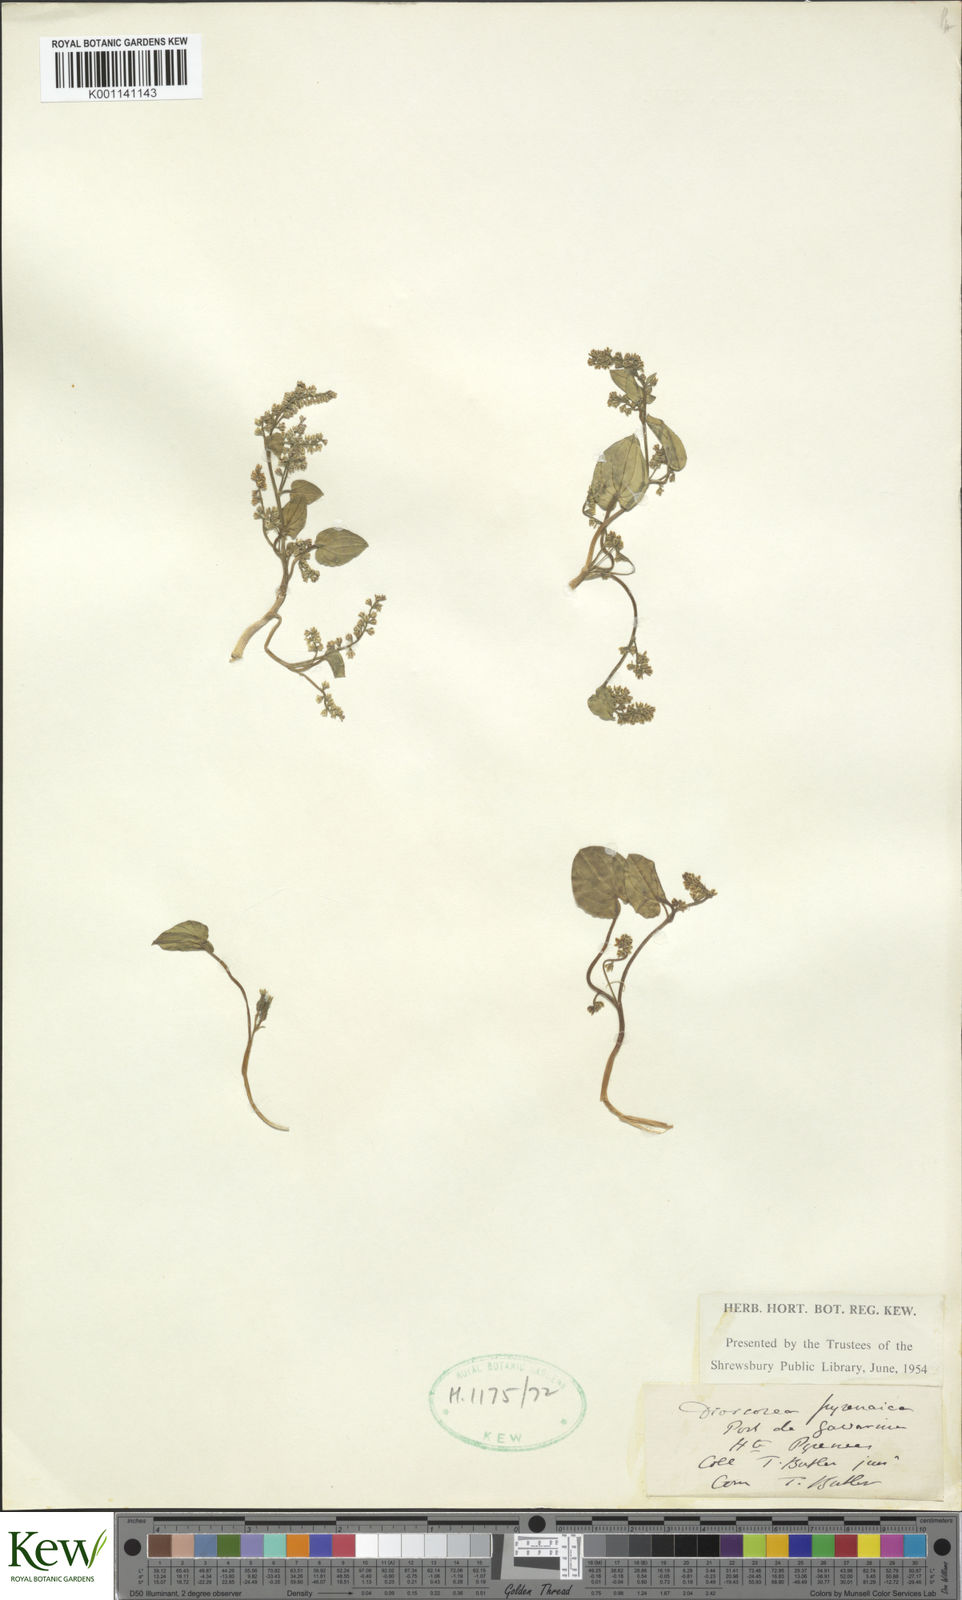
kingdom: Plantae
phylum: Tracheophyta
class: Liliopsida
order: Dioscoreales
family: Dioscoreaceae
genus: Dioscorea
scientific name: Dioscorea
